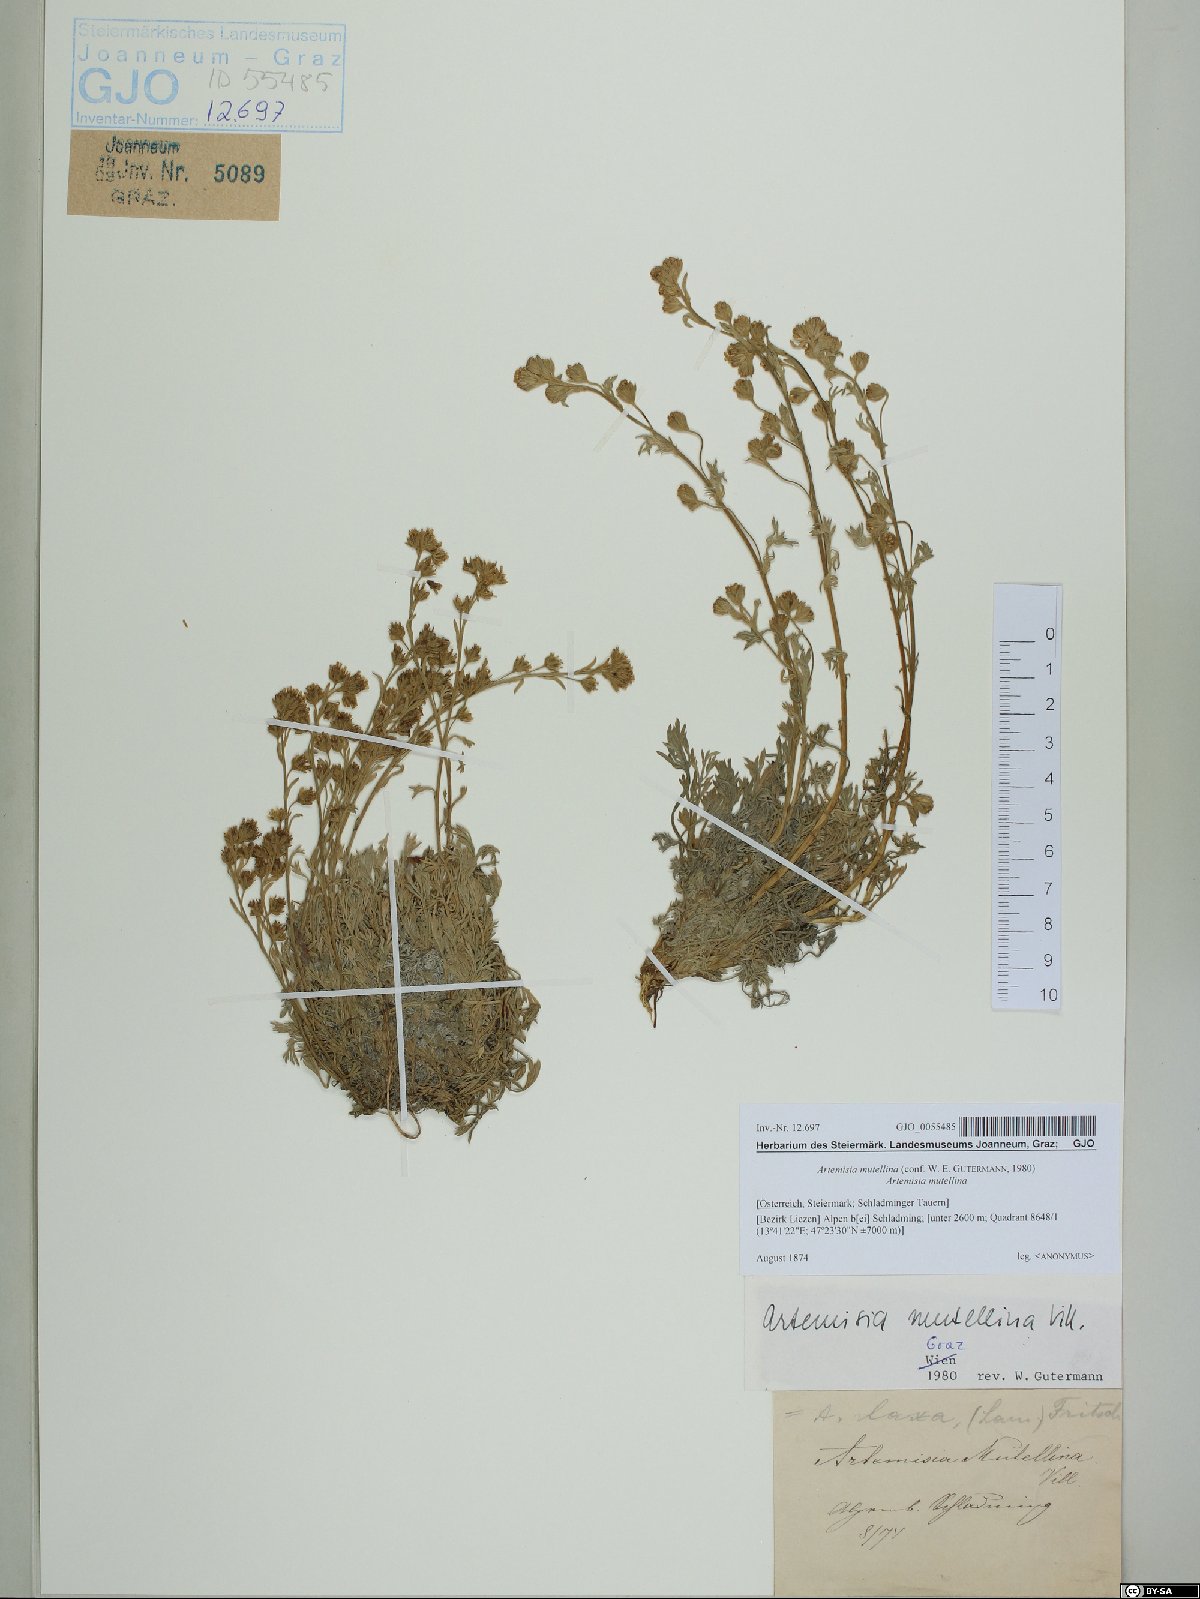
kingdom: Plantae
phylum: Tracheophyta
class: Magnoliopsida
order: Asterales
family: Asteraceae
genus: Artemisia
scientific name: Artemisia mutellina
